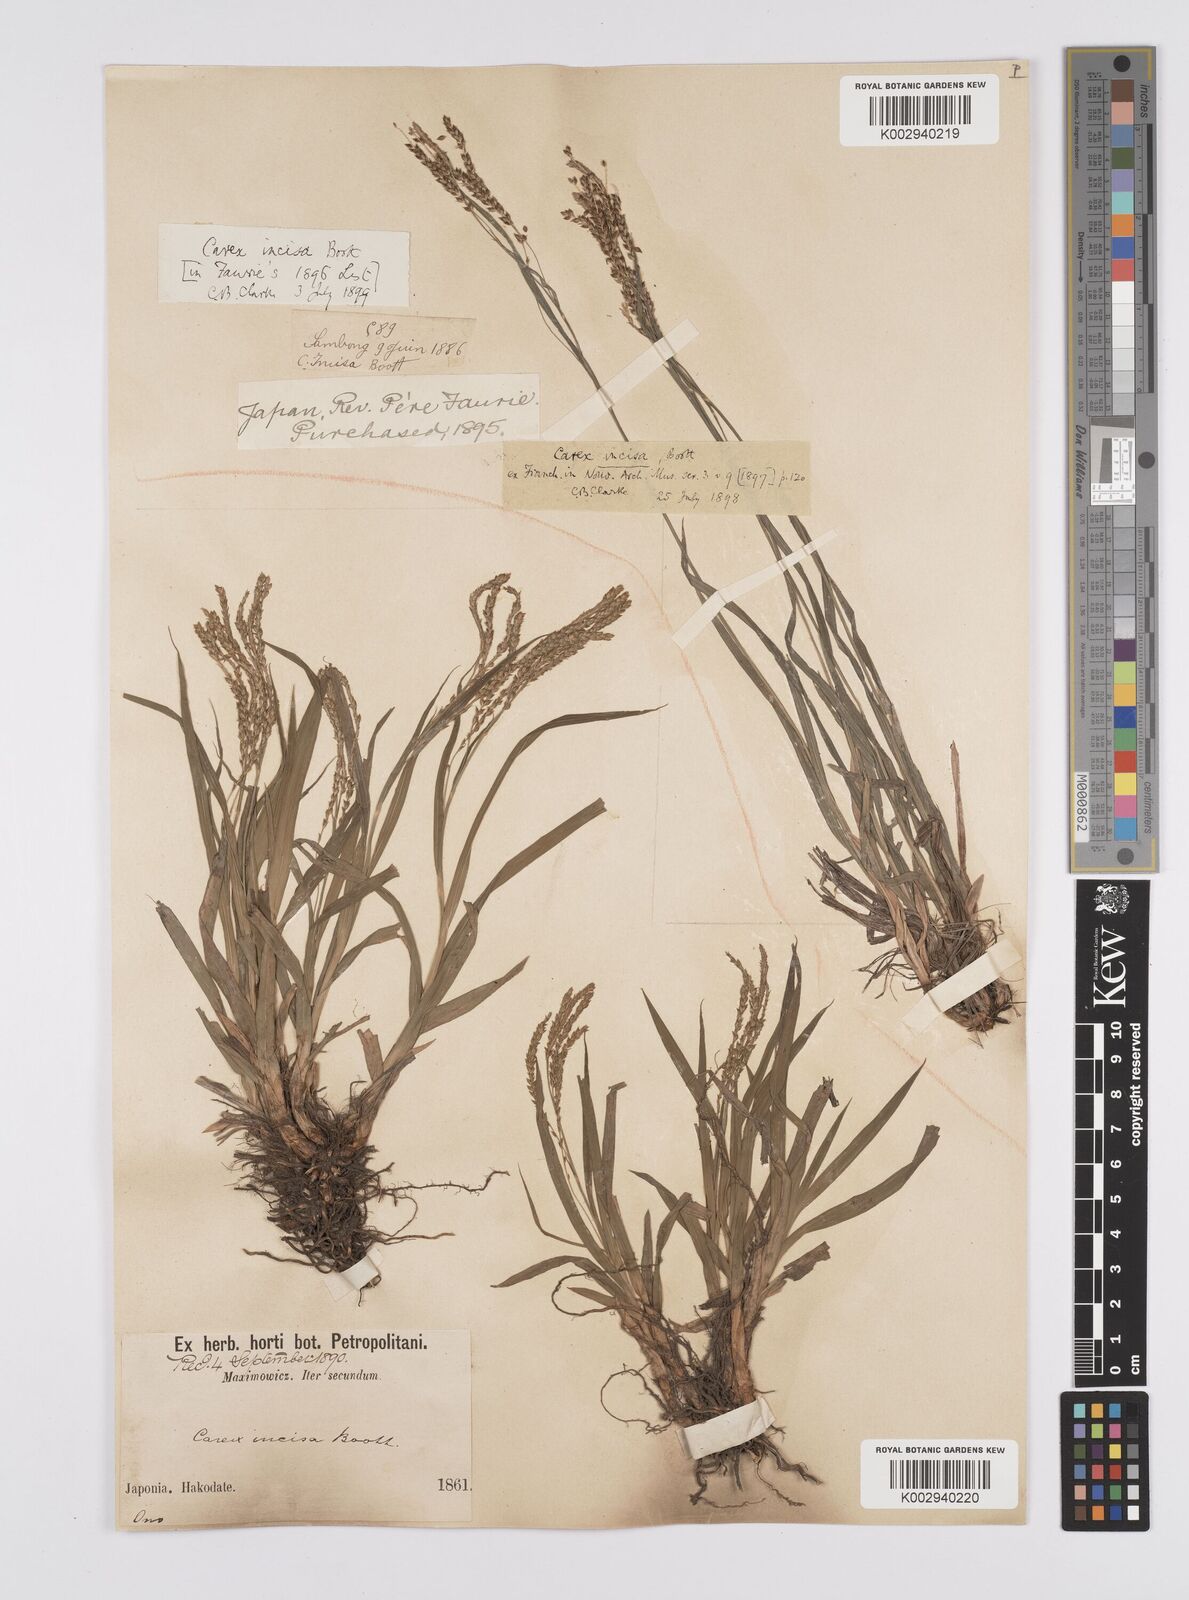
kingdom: Plantae
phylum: Tracheophyta
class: Liliopsida
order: Poales
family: Cyperaceae
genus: Carex
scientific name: Carex incisa
